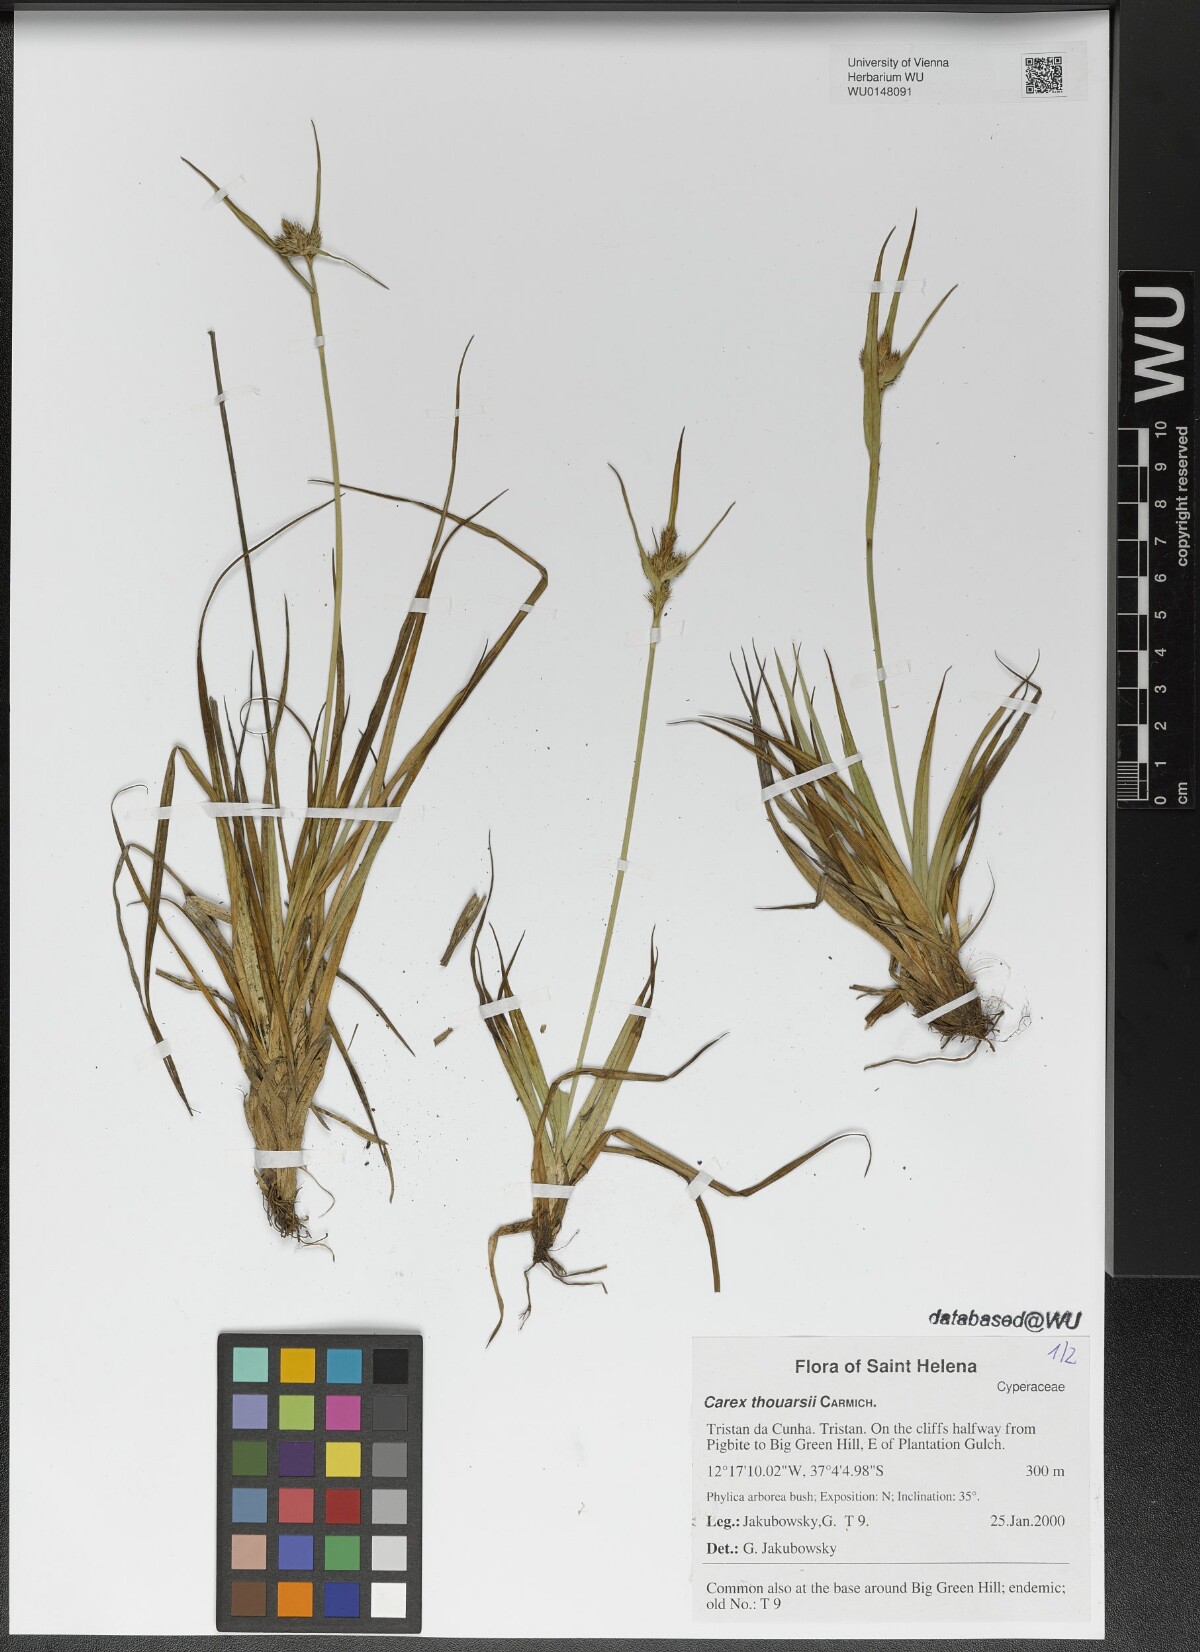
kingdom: Plantae
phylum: Tracheophyta
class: Liliopsida
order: Poales
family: Cyperaceae
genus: Carex
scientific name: Carex thouarsii
